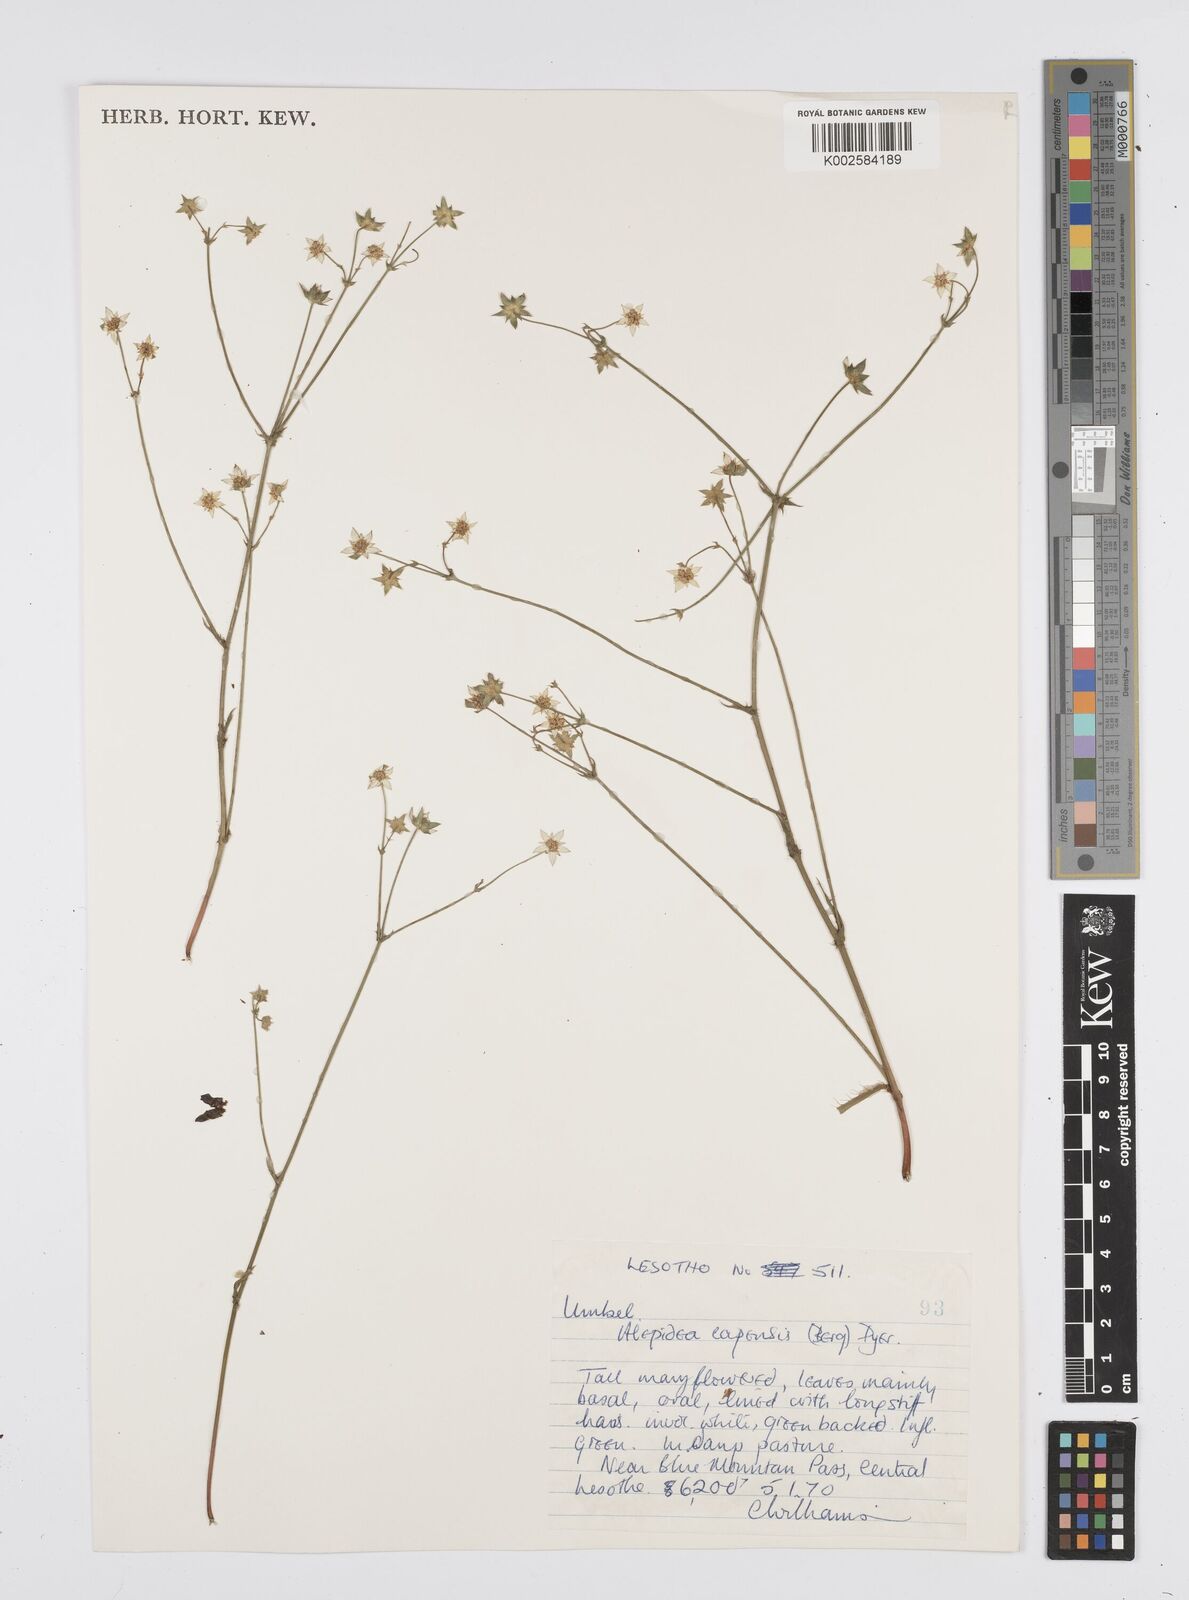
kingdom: Plantae
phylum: Tracheophyta
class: Magnoliopsida
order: Apiales
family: Apiaceae
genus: Alepidea
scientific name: Alepidea capensis
